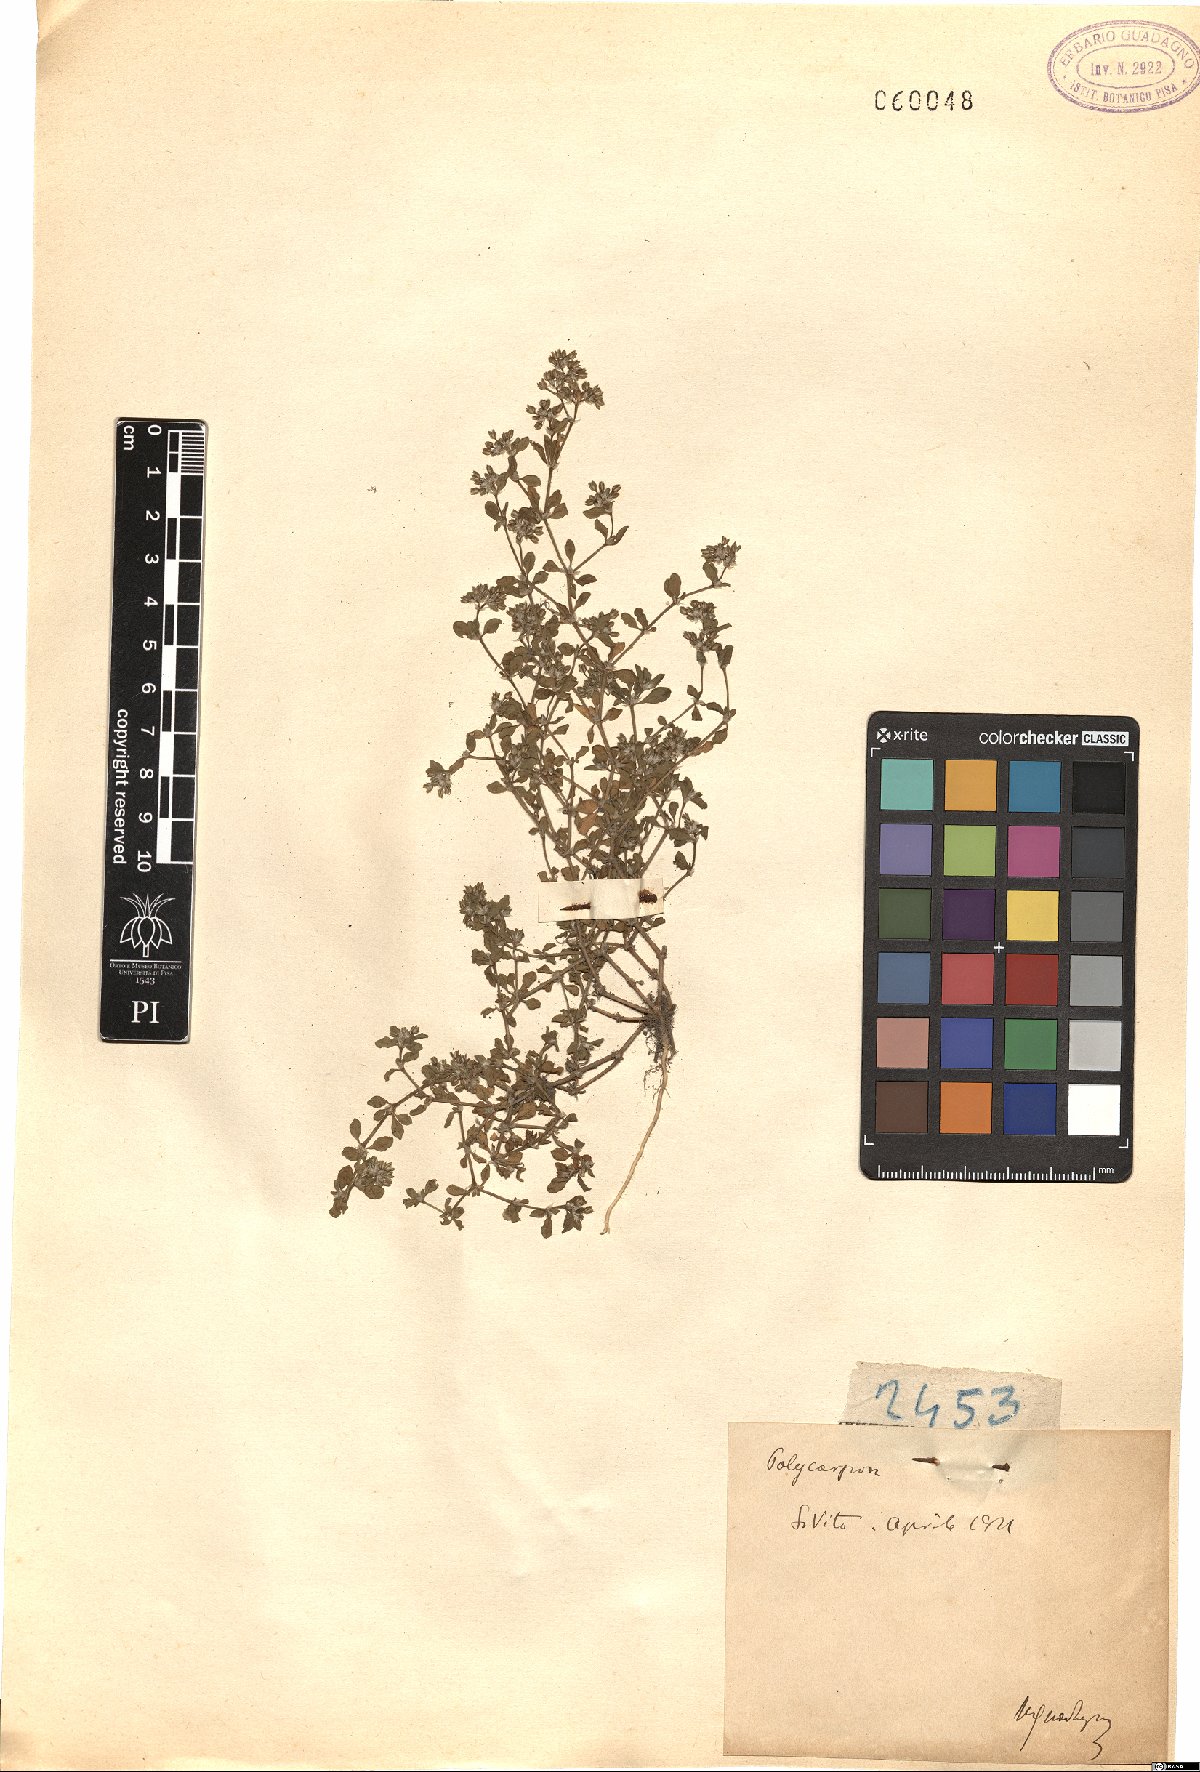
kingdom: Plantae
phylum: Tracheophyta
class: Magnoliopsida
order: Caryophyllales
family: Caryophyllaceae
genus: Polycarpon
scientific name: Polycarpon
